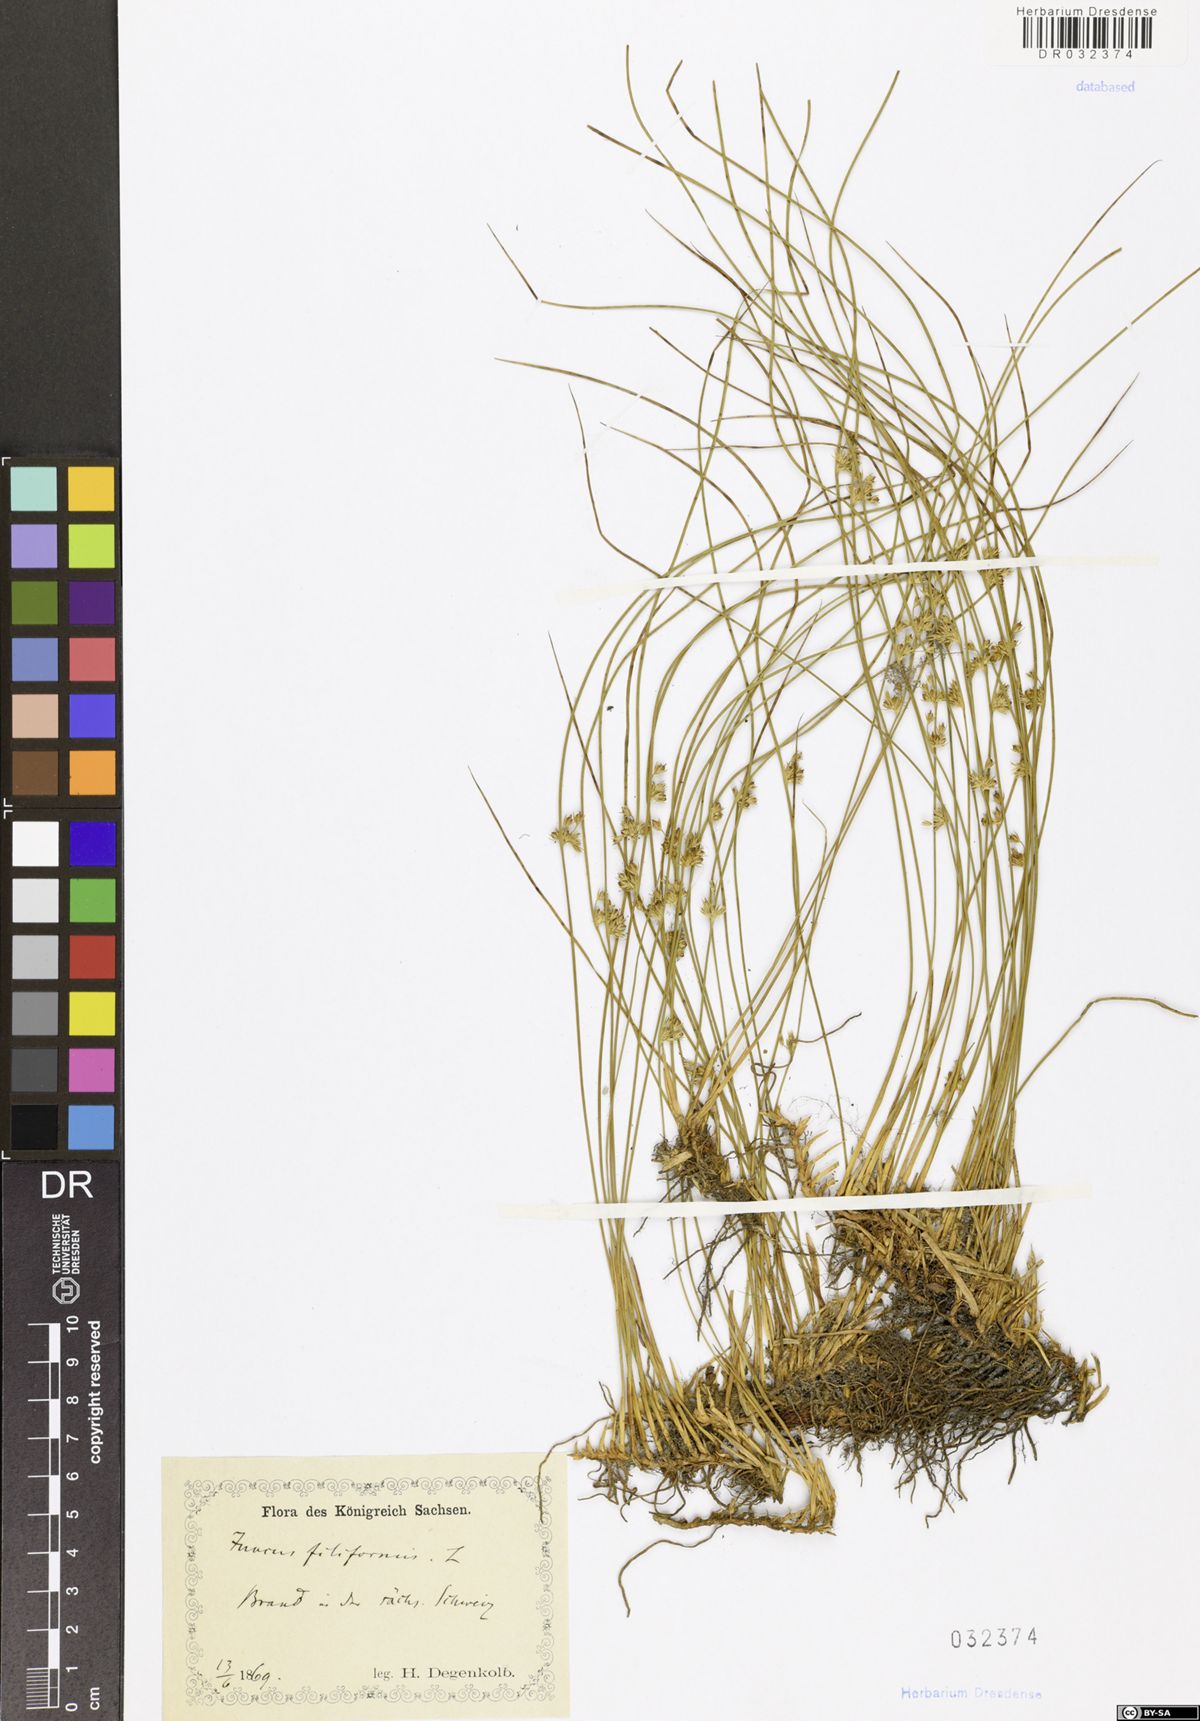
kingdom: Plantae
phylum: Tracheophyta
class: Liliopsida
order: Poales
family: Juncaceae
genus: Juncus
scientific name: Juncus inflexus
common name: Hard rush
